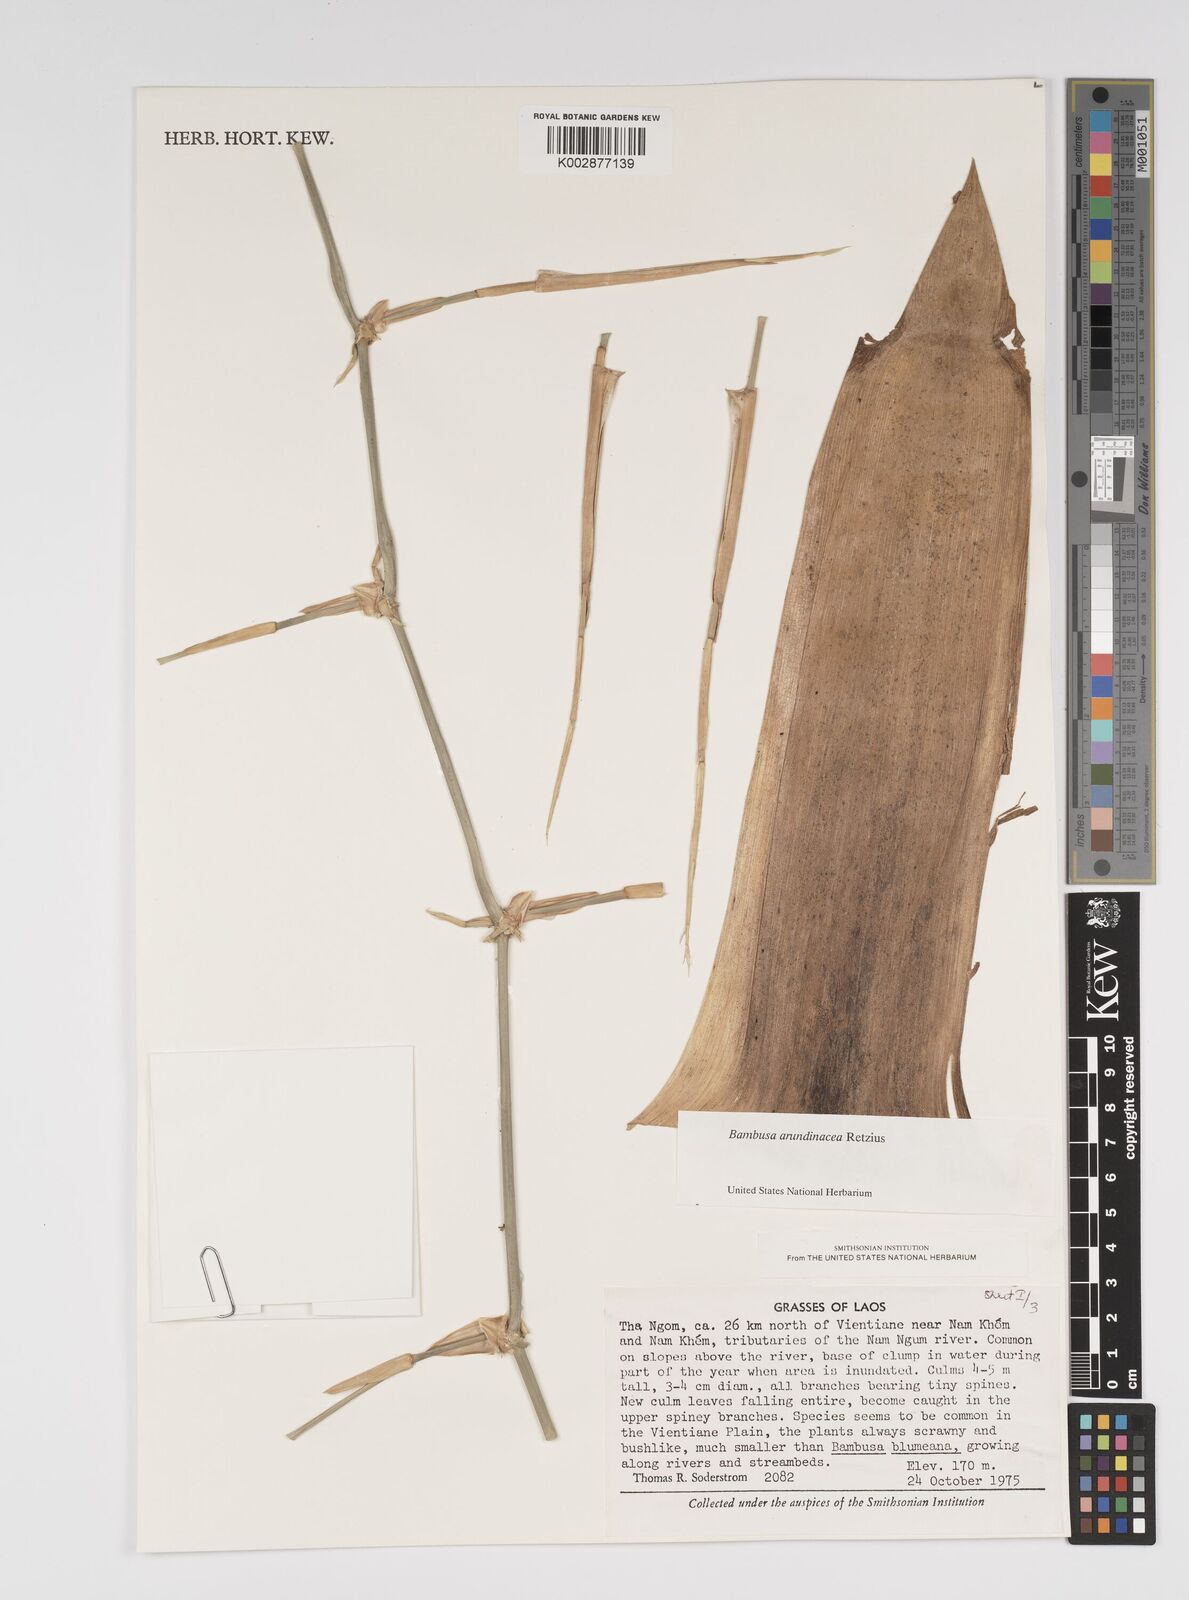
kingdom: Plantae
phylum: Tracheophyta
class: Liliopsida
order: Poales
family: Poaceae
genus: Bambusa
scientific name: Bambusa bambos
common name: Indian thorny bamboo
